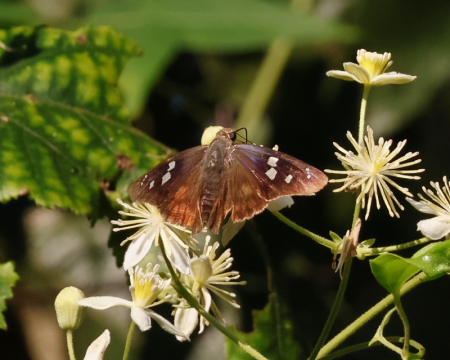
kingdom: Animalia
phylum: Arthropoda
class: Insecta
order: Lepidoptera
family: Hesperiidae
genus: Polygonus
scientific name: Polygonus leo
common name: Hammock Skipper
